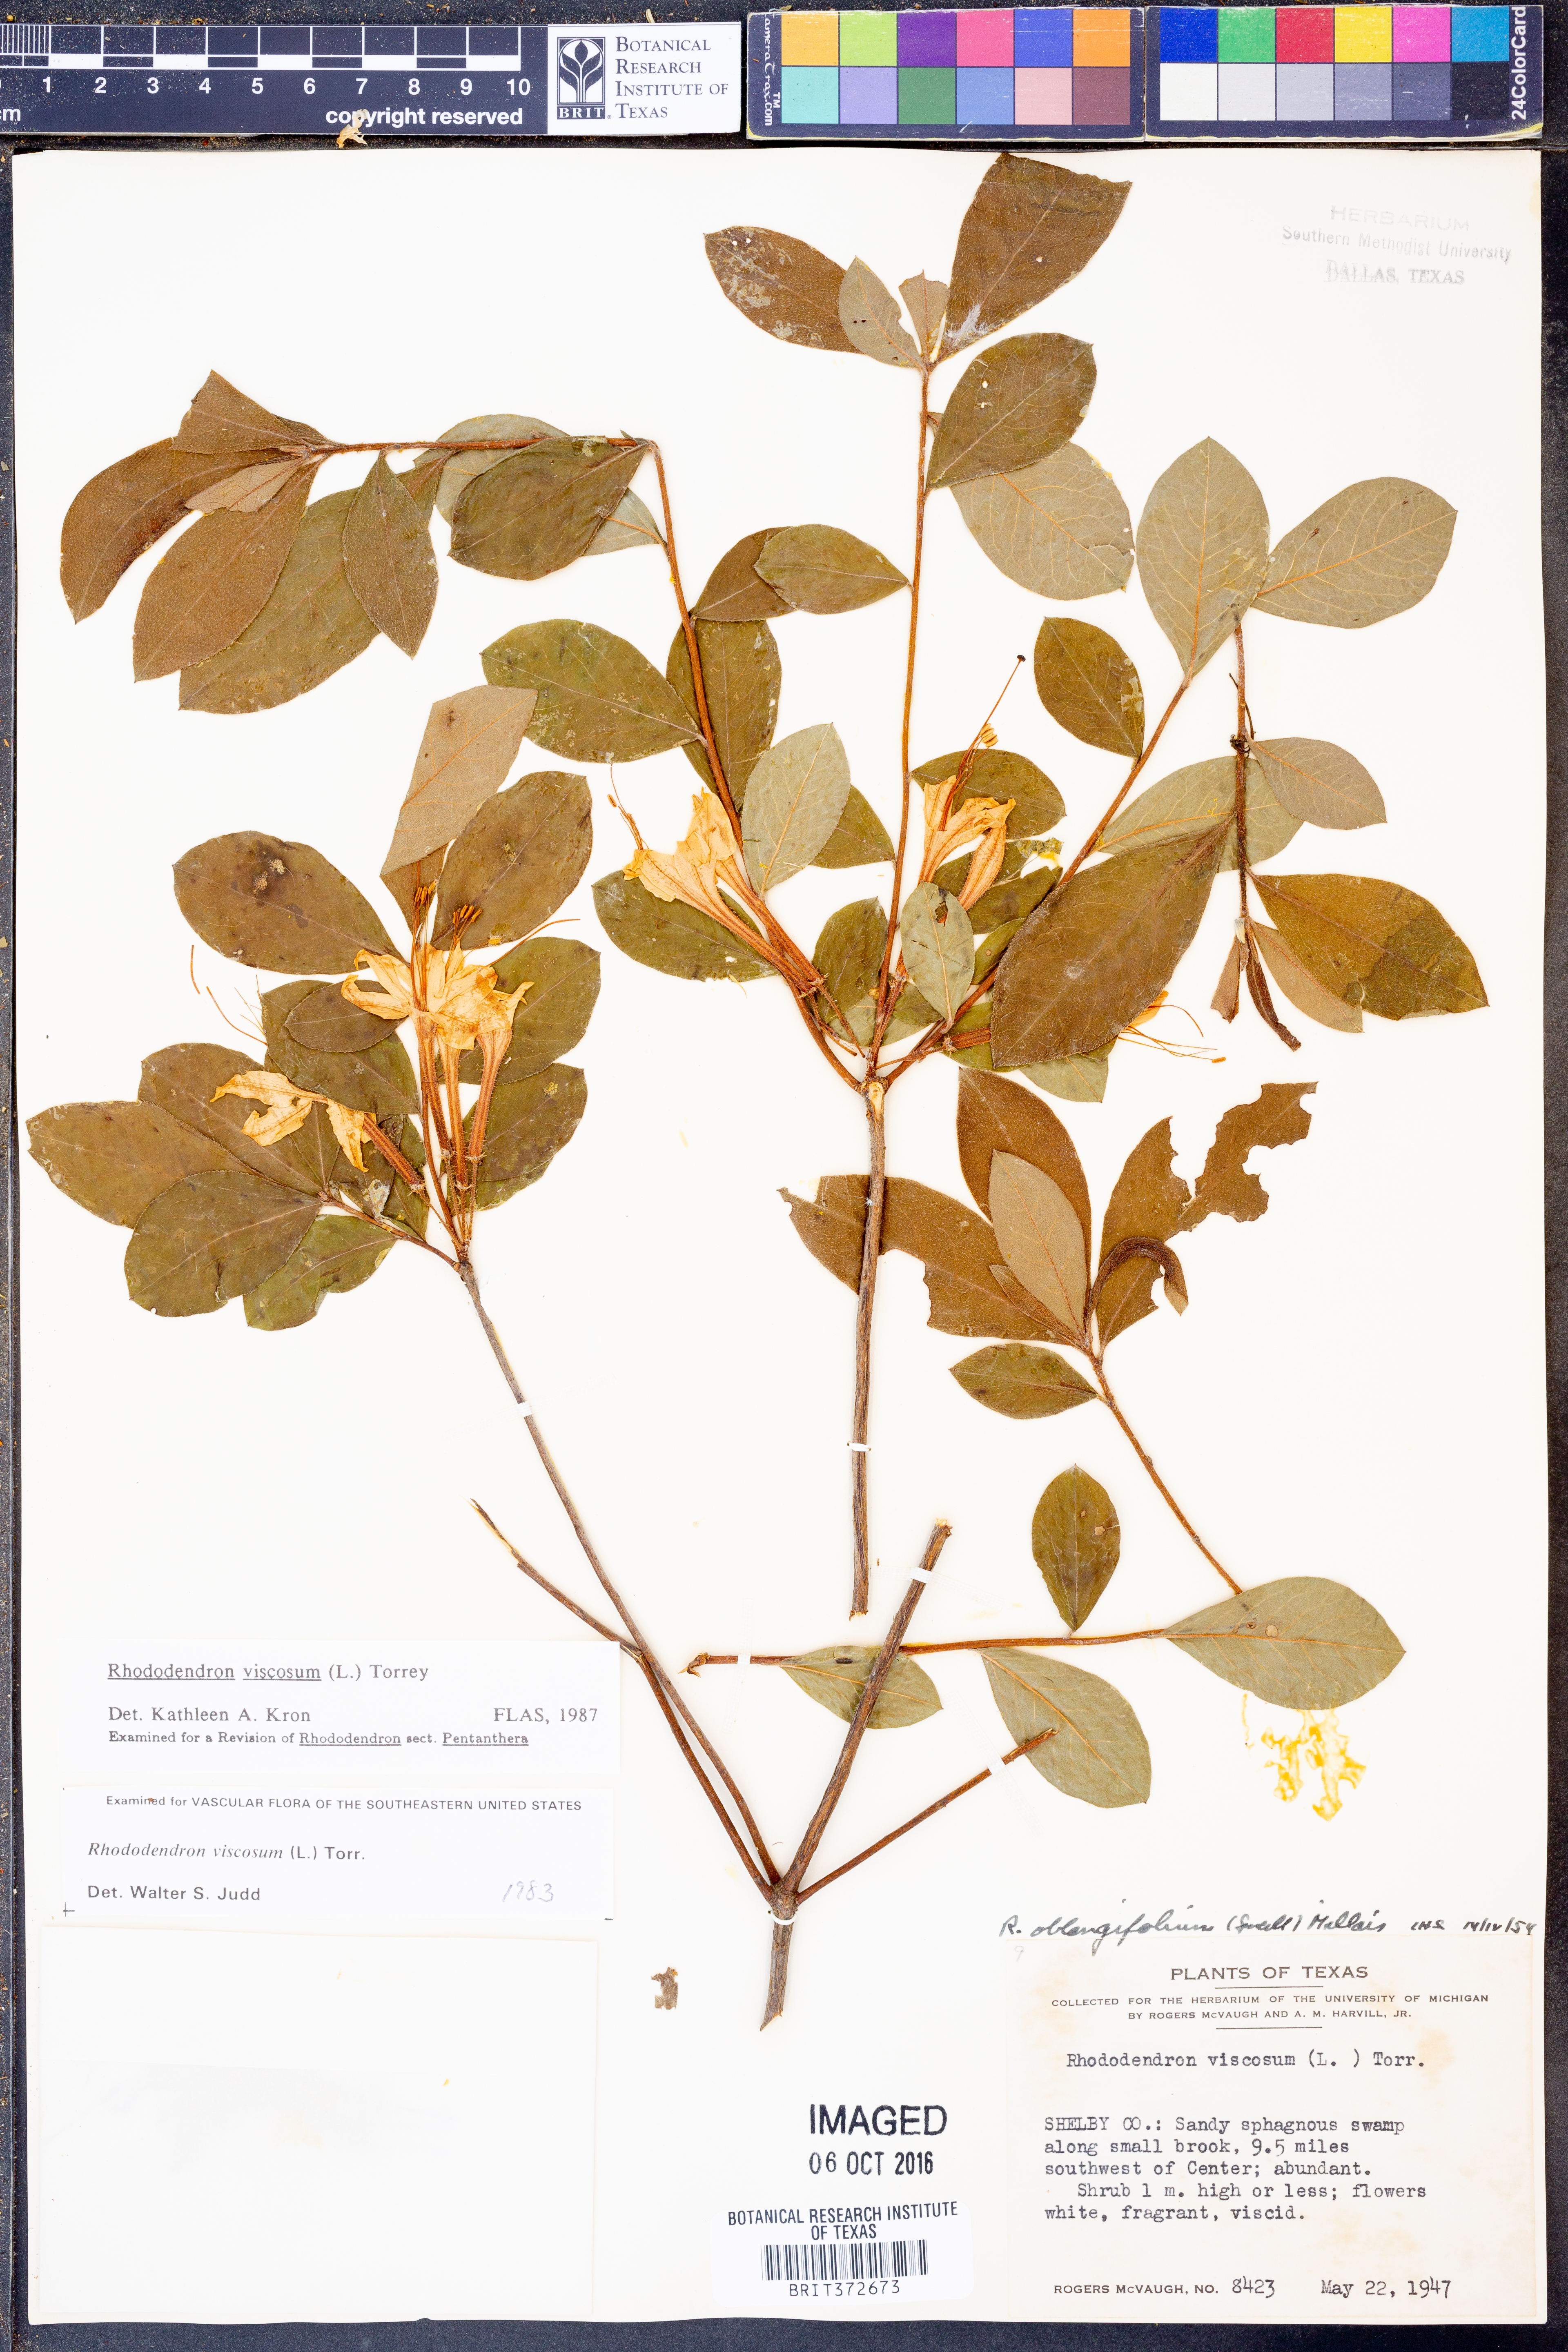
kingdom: Plantae
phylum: Tracheophyta
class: Magnoliopsida
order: Ericales
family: Ericaceae
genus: Rhododendron
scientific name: Rhododendron viscosum
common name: Clammy azalea
